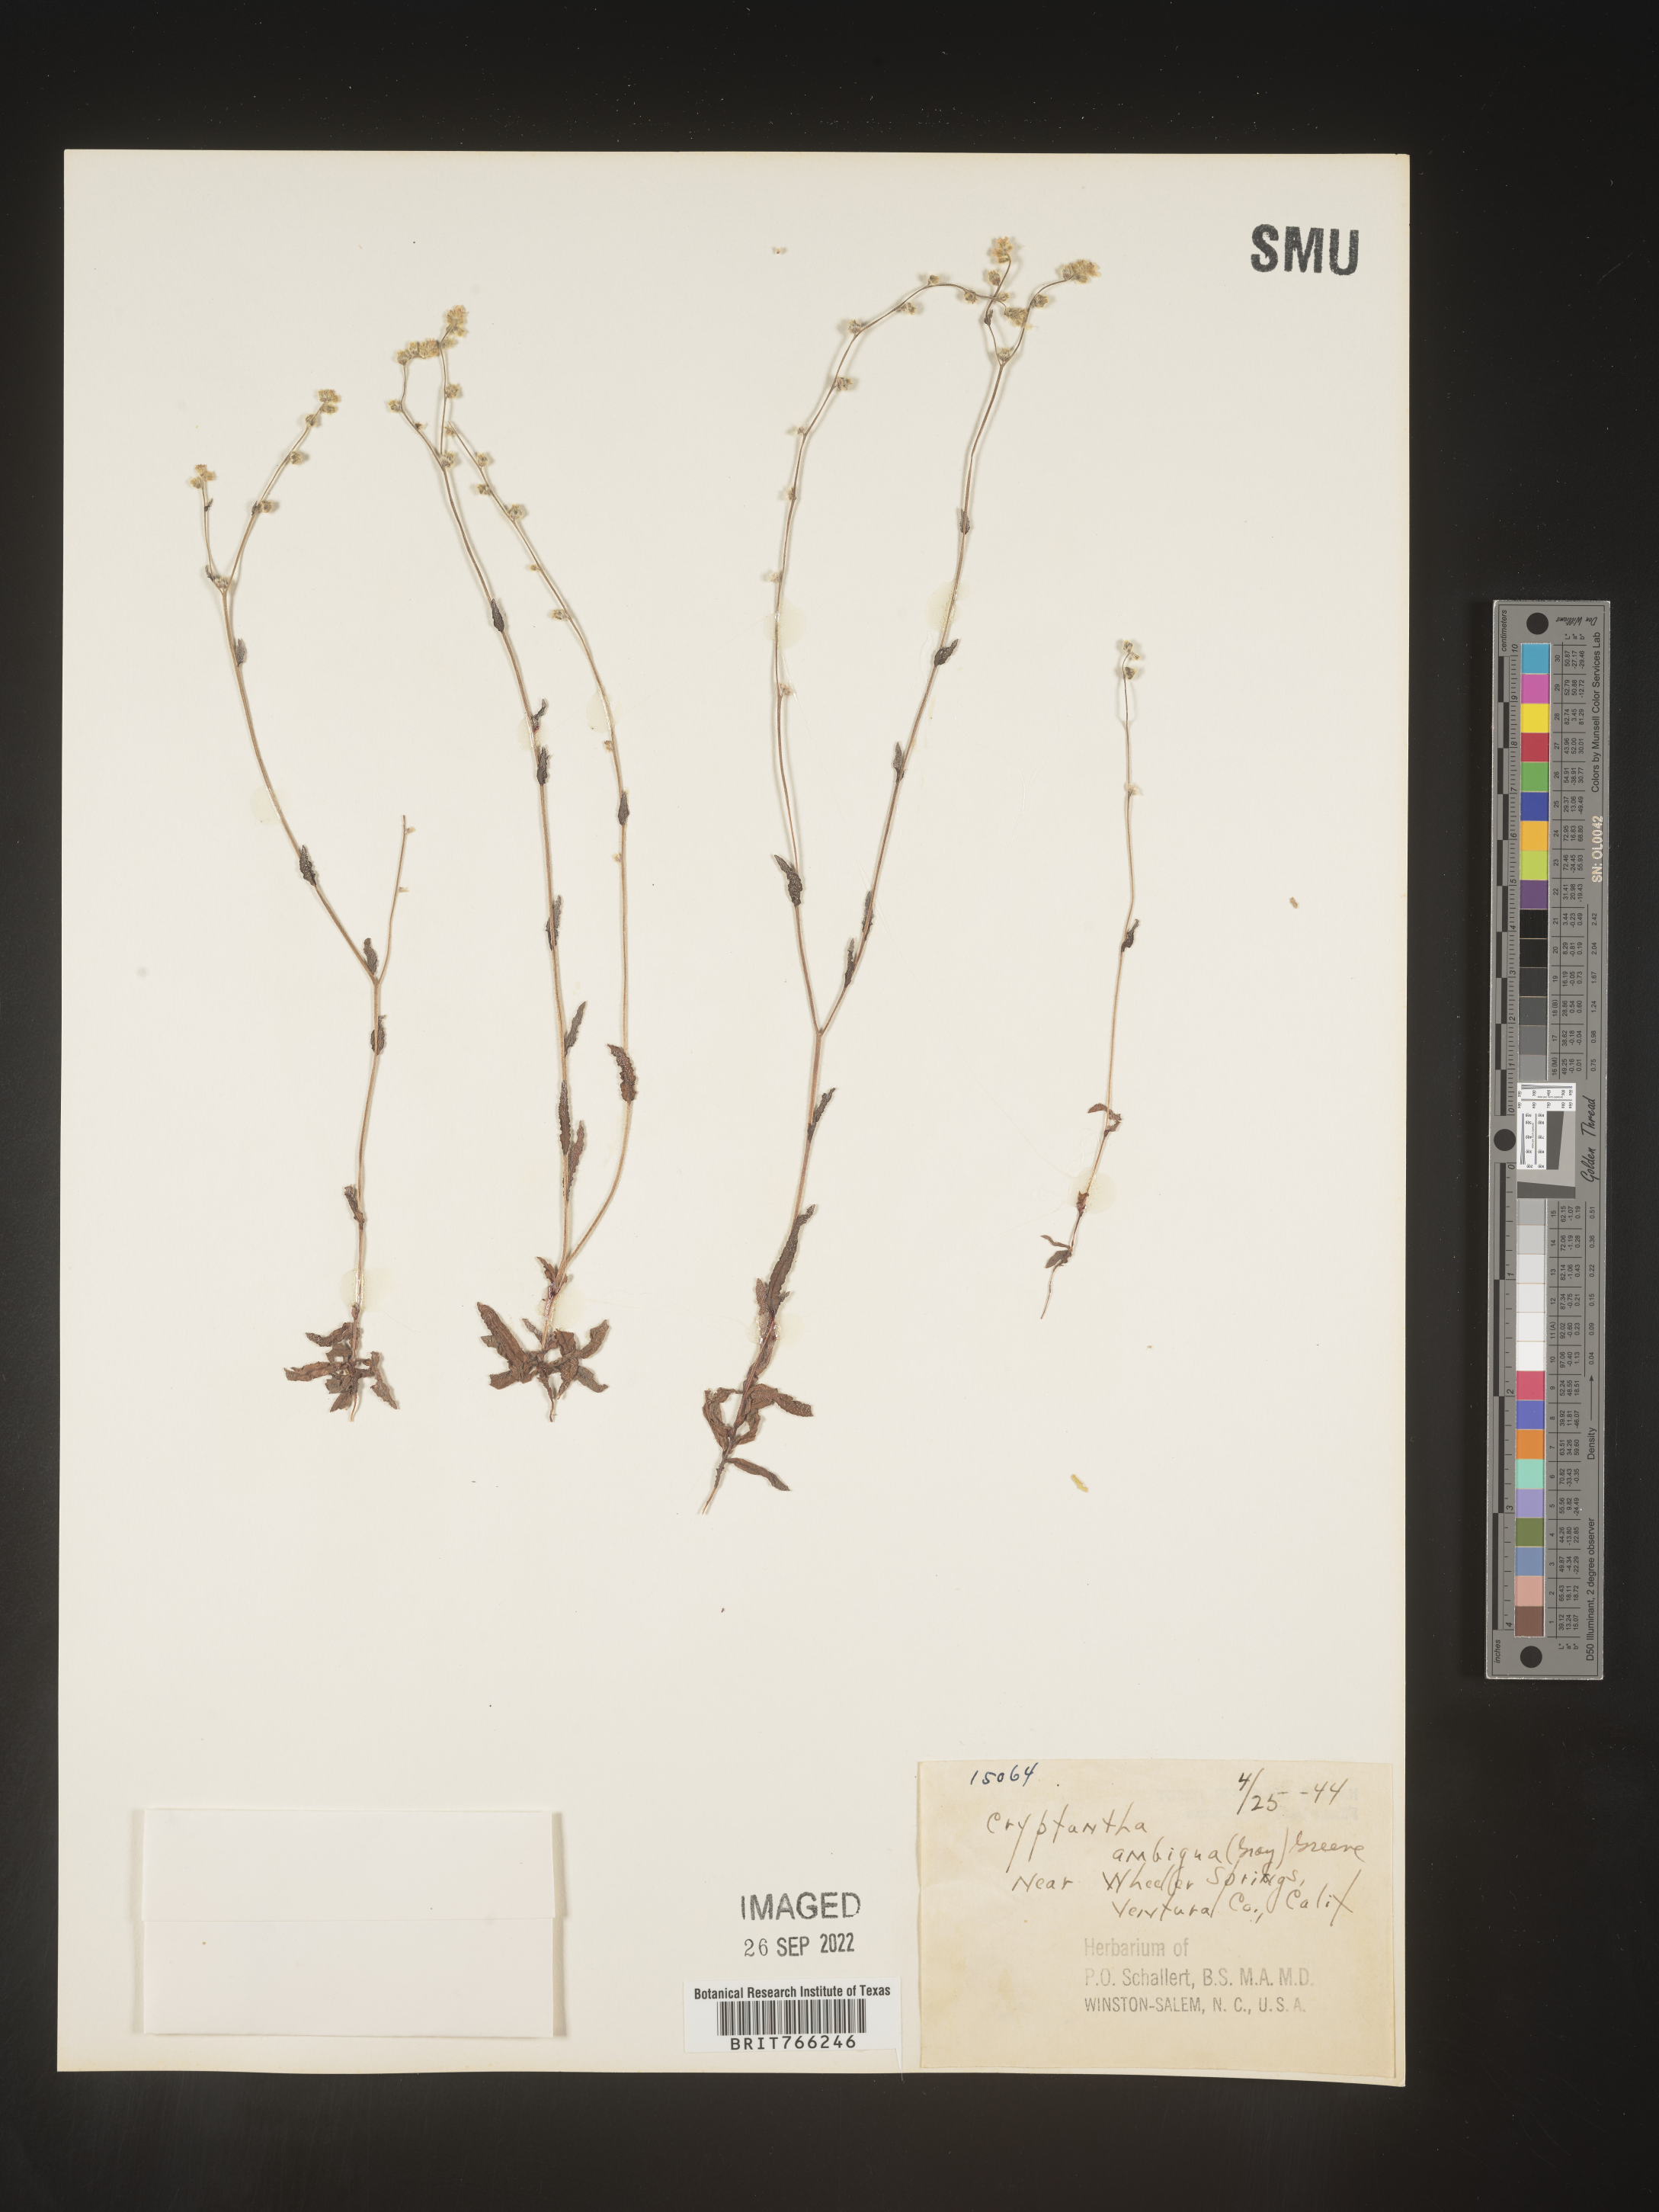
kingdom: Plantae
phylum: Tracheophyta
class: Magnoliopsida
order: Boraginales
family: Boraginaceae
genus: Cryptantha
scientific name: Cryptantha
